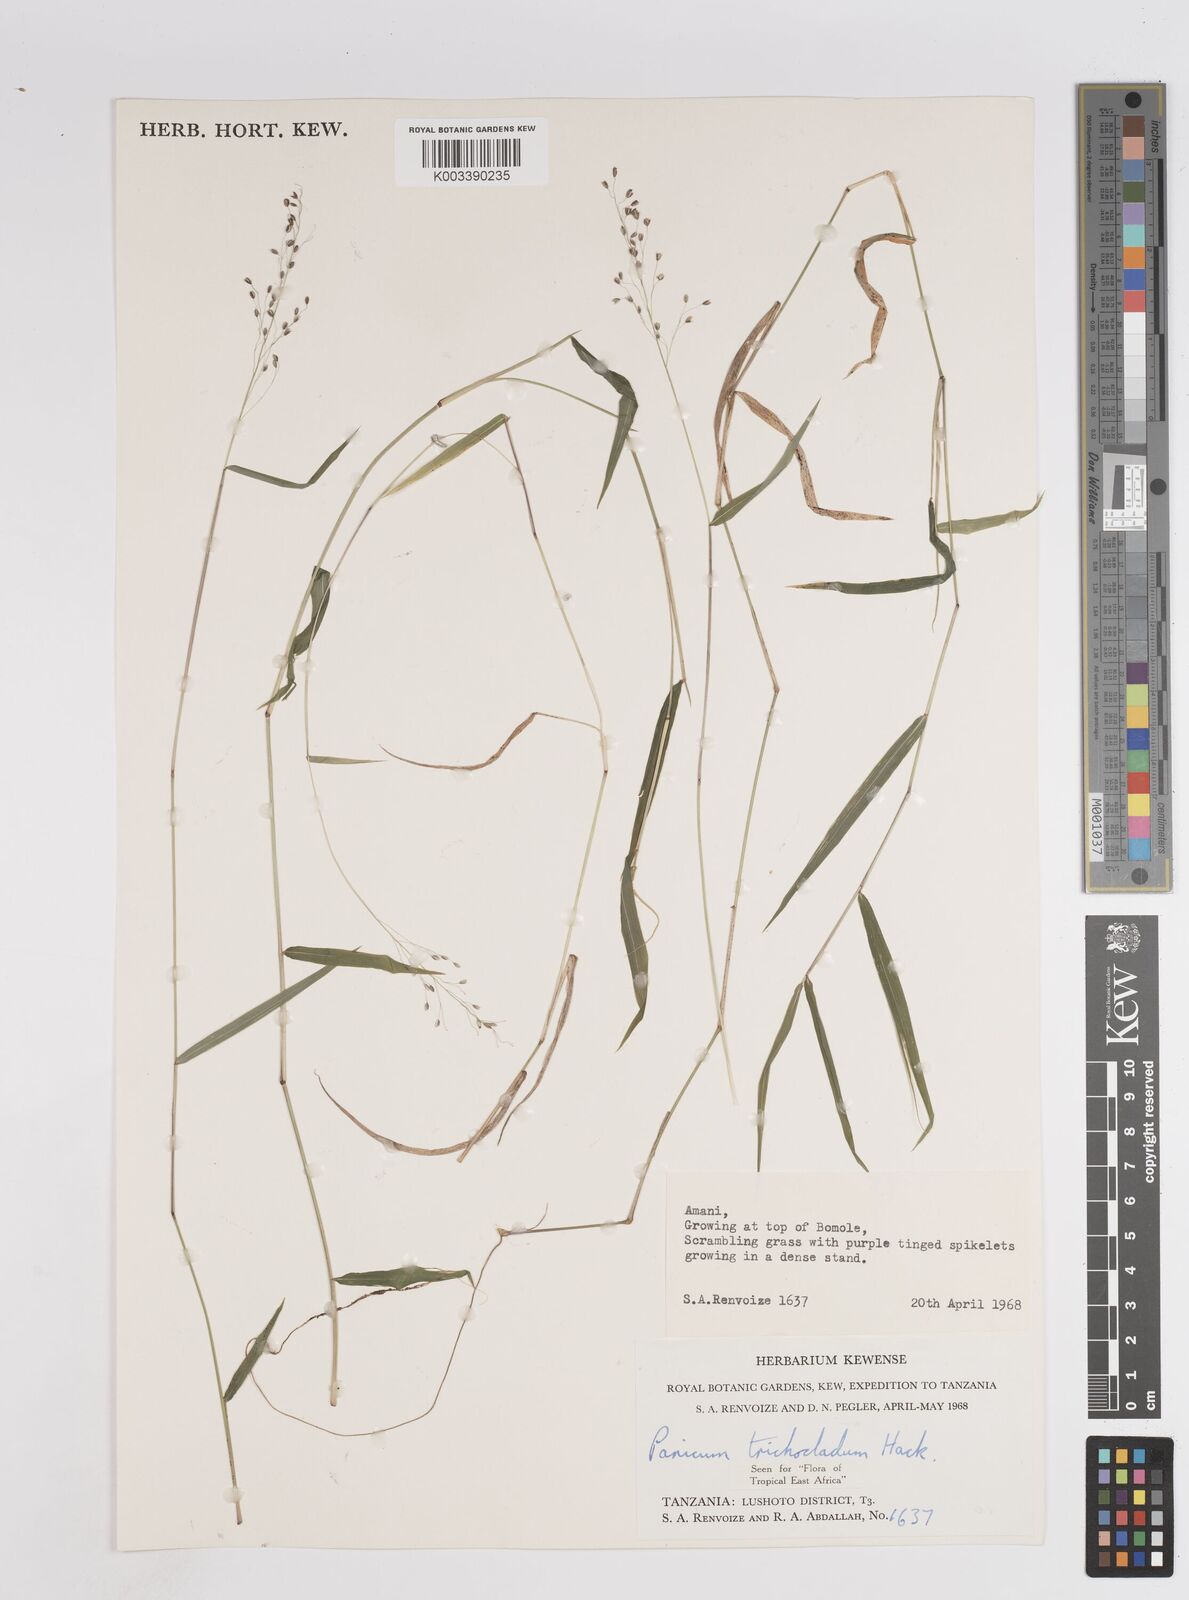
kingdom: Plantae
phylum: Tracheophyta
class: Liliopsida
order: Poales
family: Poaceae
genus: Panicum
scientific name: Panicum trichocladum
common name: Donkey grass
